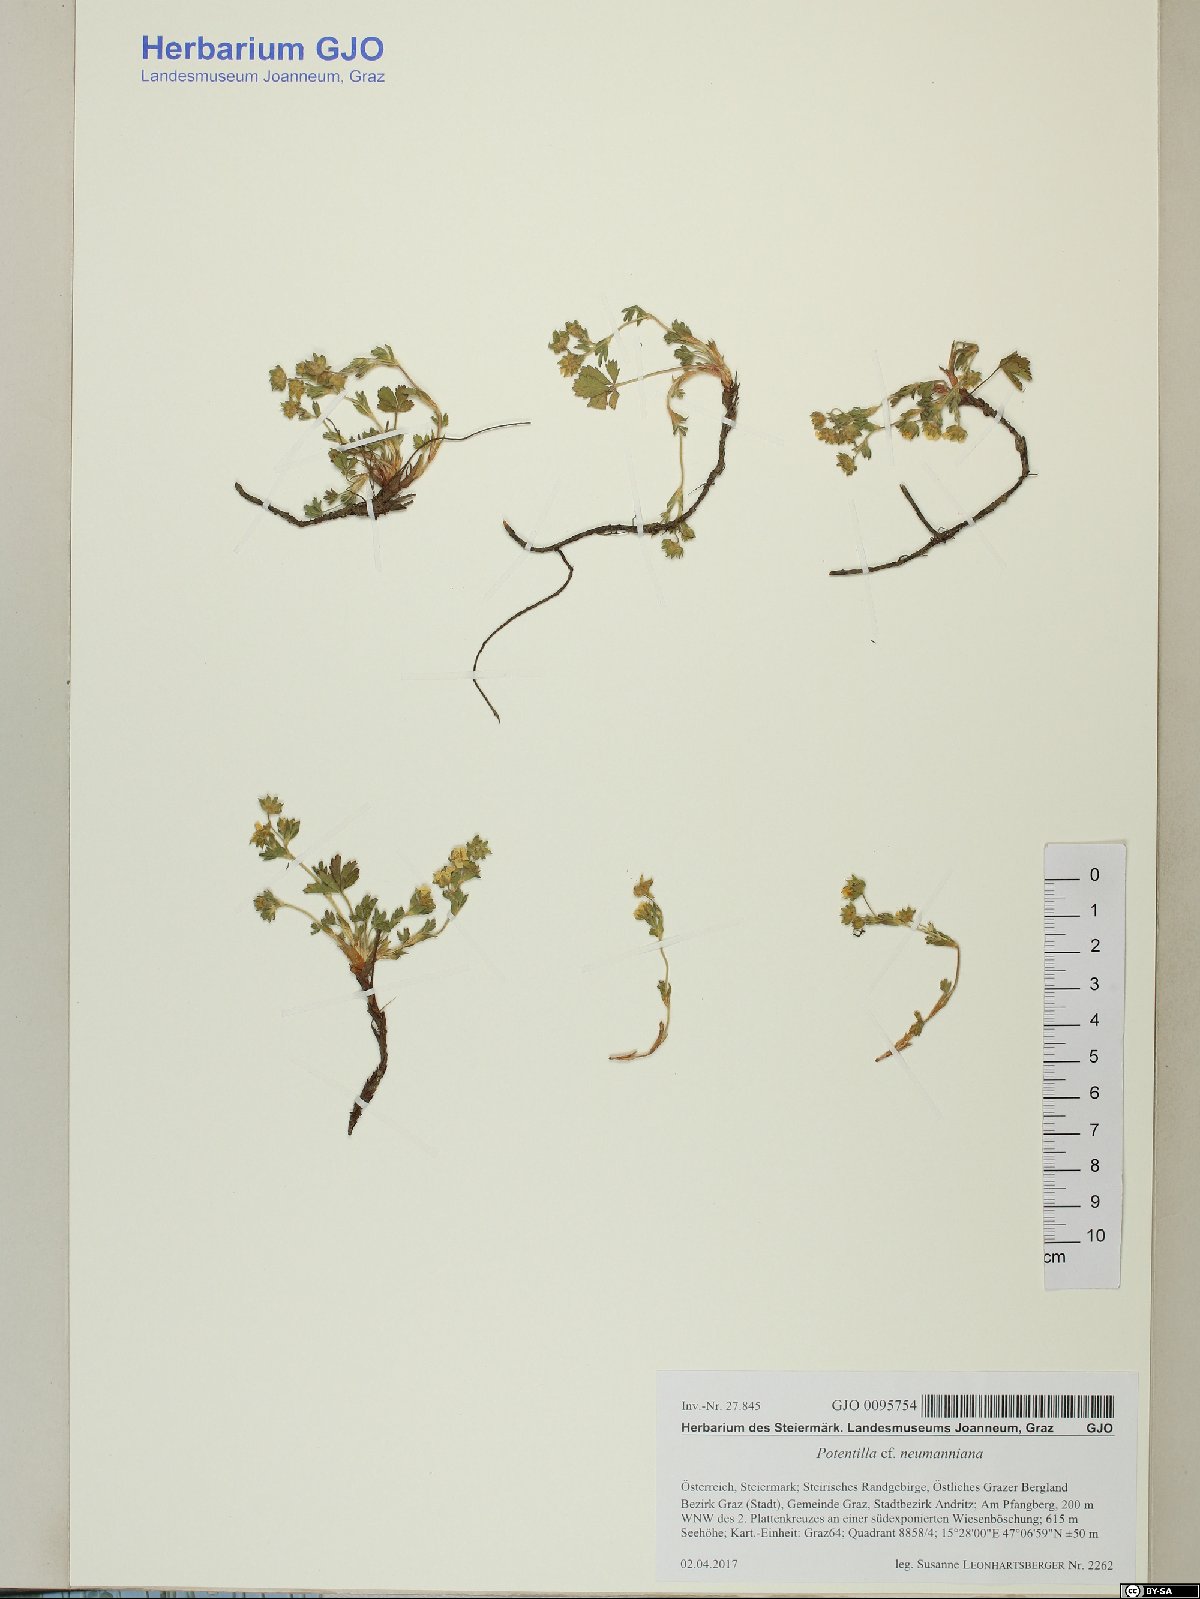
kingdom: Plantae
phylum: Tracheophyta
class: Magnoliopsida
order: Rosales
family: Rosaceae
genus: Potentilla
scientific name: Potentilla verna
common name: Spring cinquefoil
